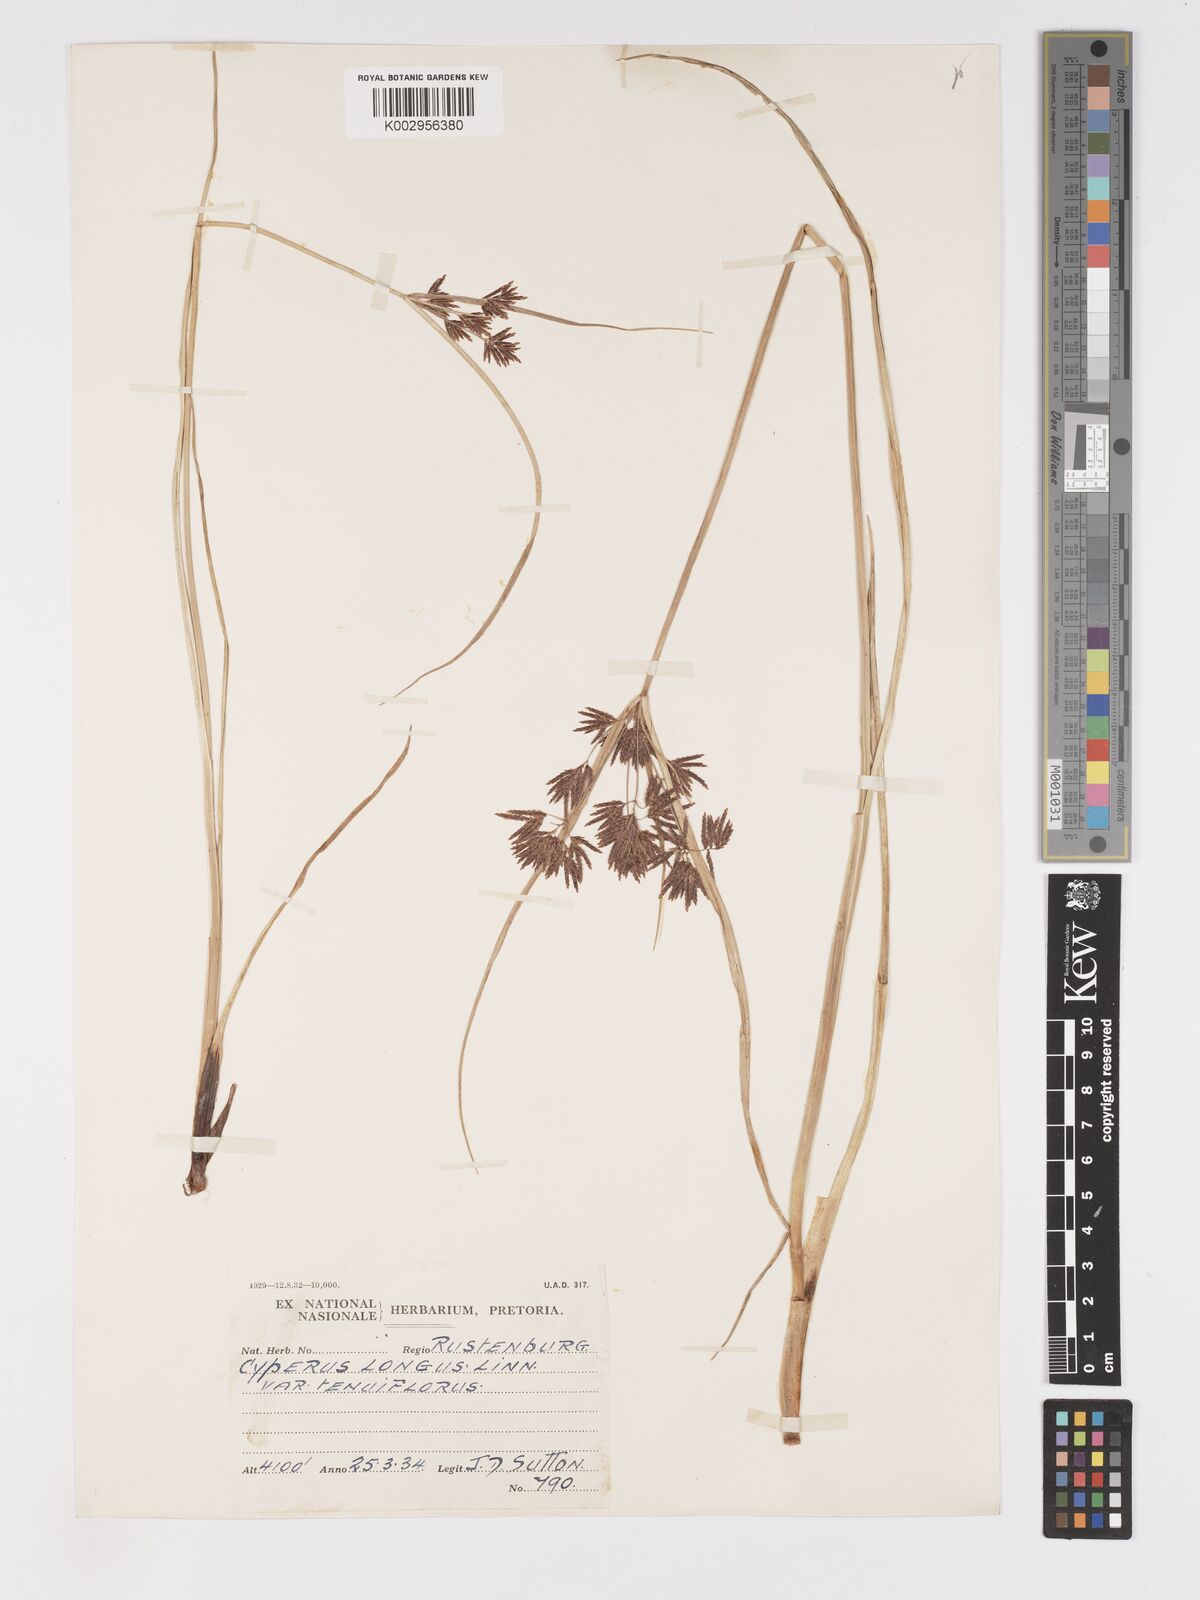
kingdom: Plantae
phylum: Tracheophyta
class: Liliopsida
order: Poales
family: Cyperaceae
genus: Cyperus
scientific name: Cyperus longus
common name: Galingale
